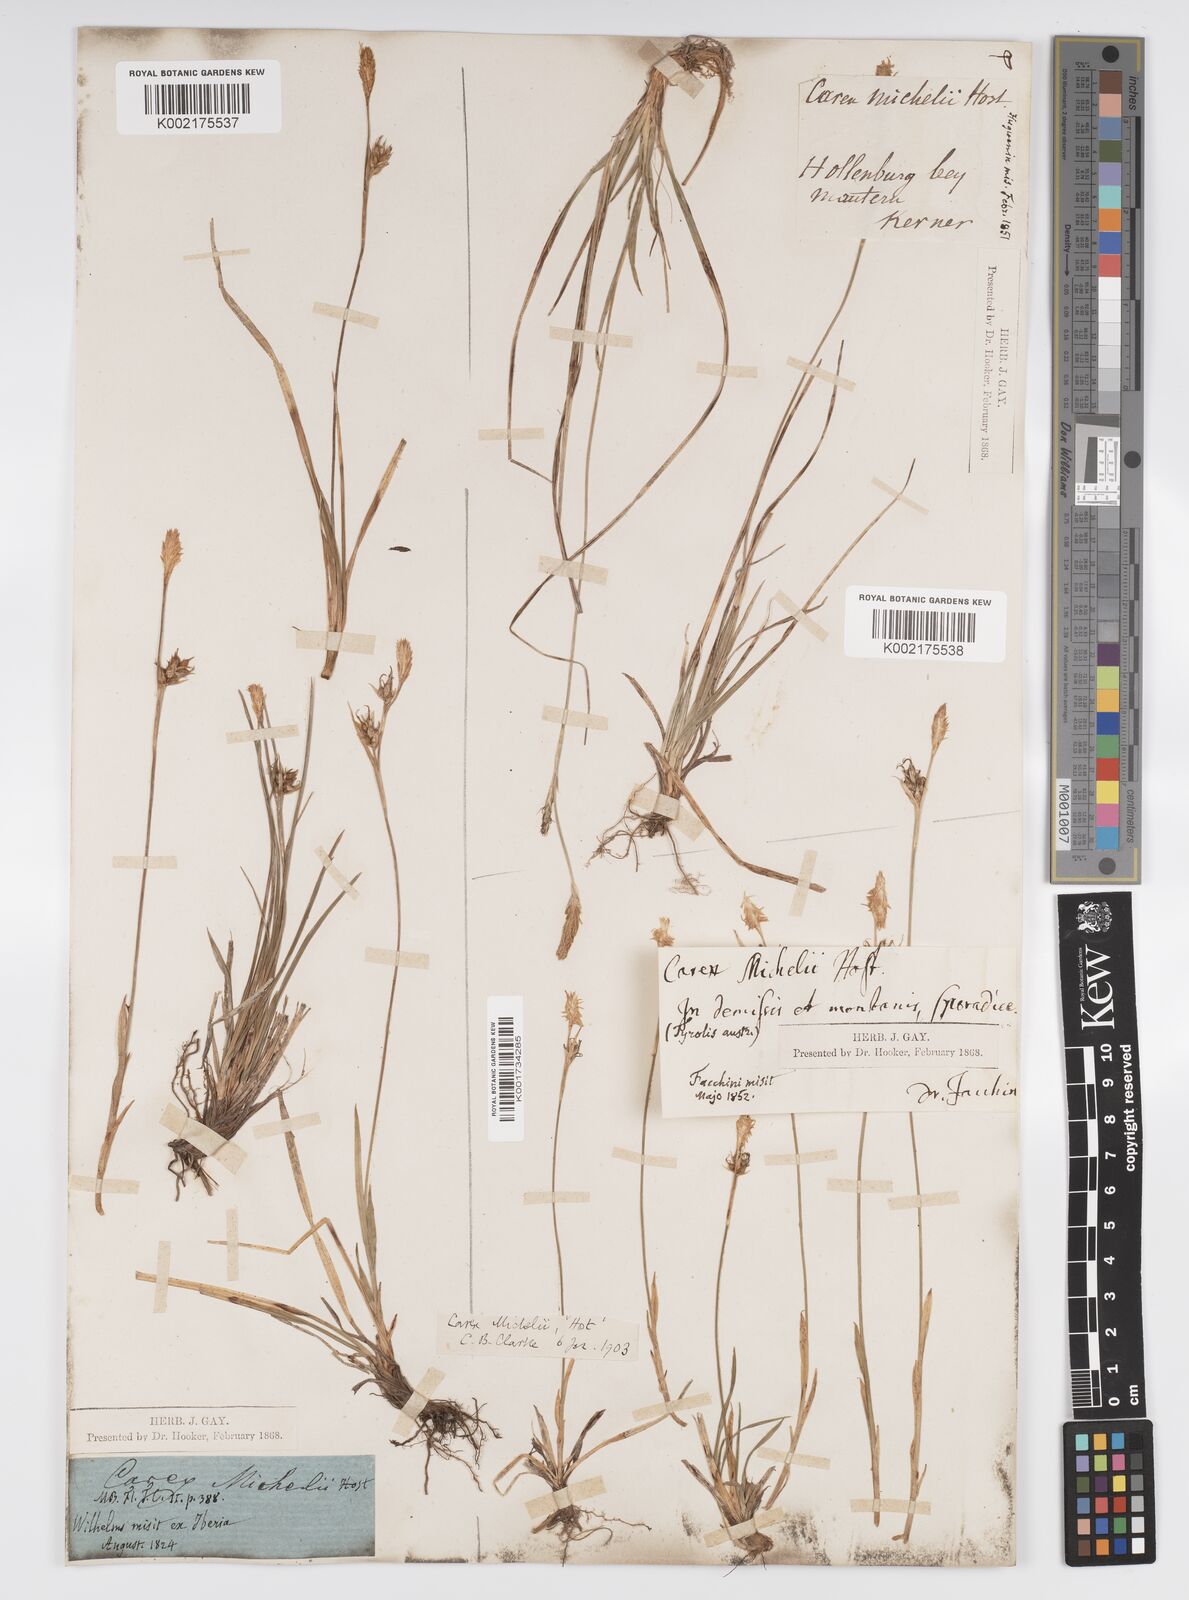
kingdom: Plantae
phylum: Tracheophyta
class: Liliopsida
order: Poales
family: Cyperaceae
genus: Carex
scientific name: Carex michelii
